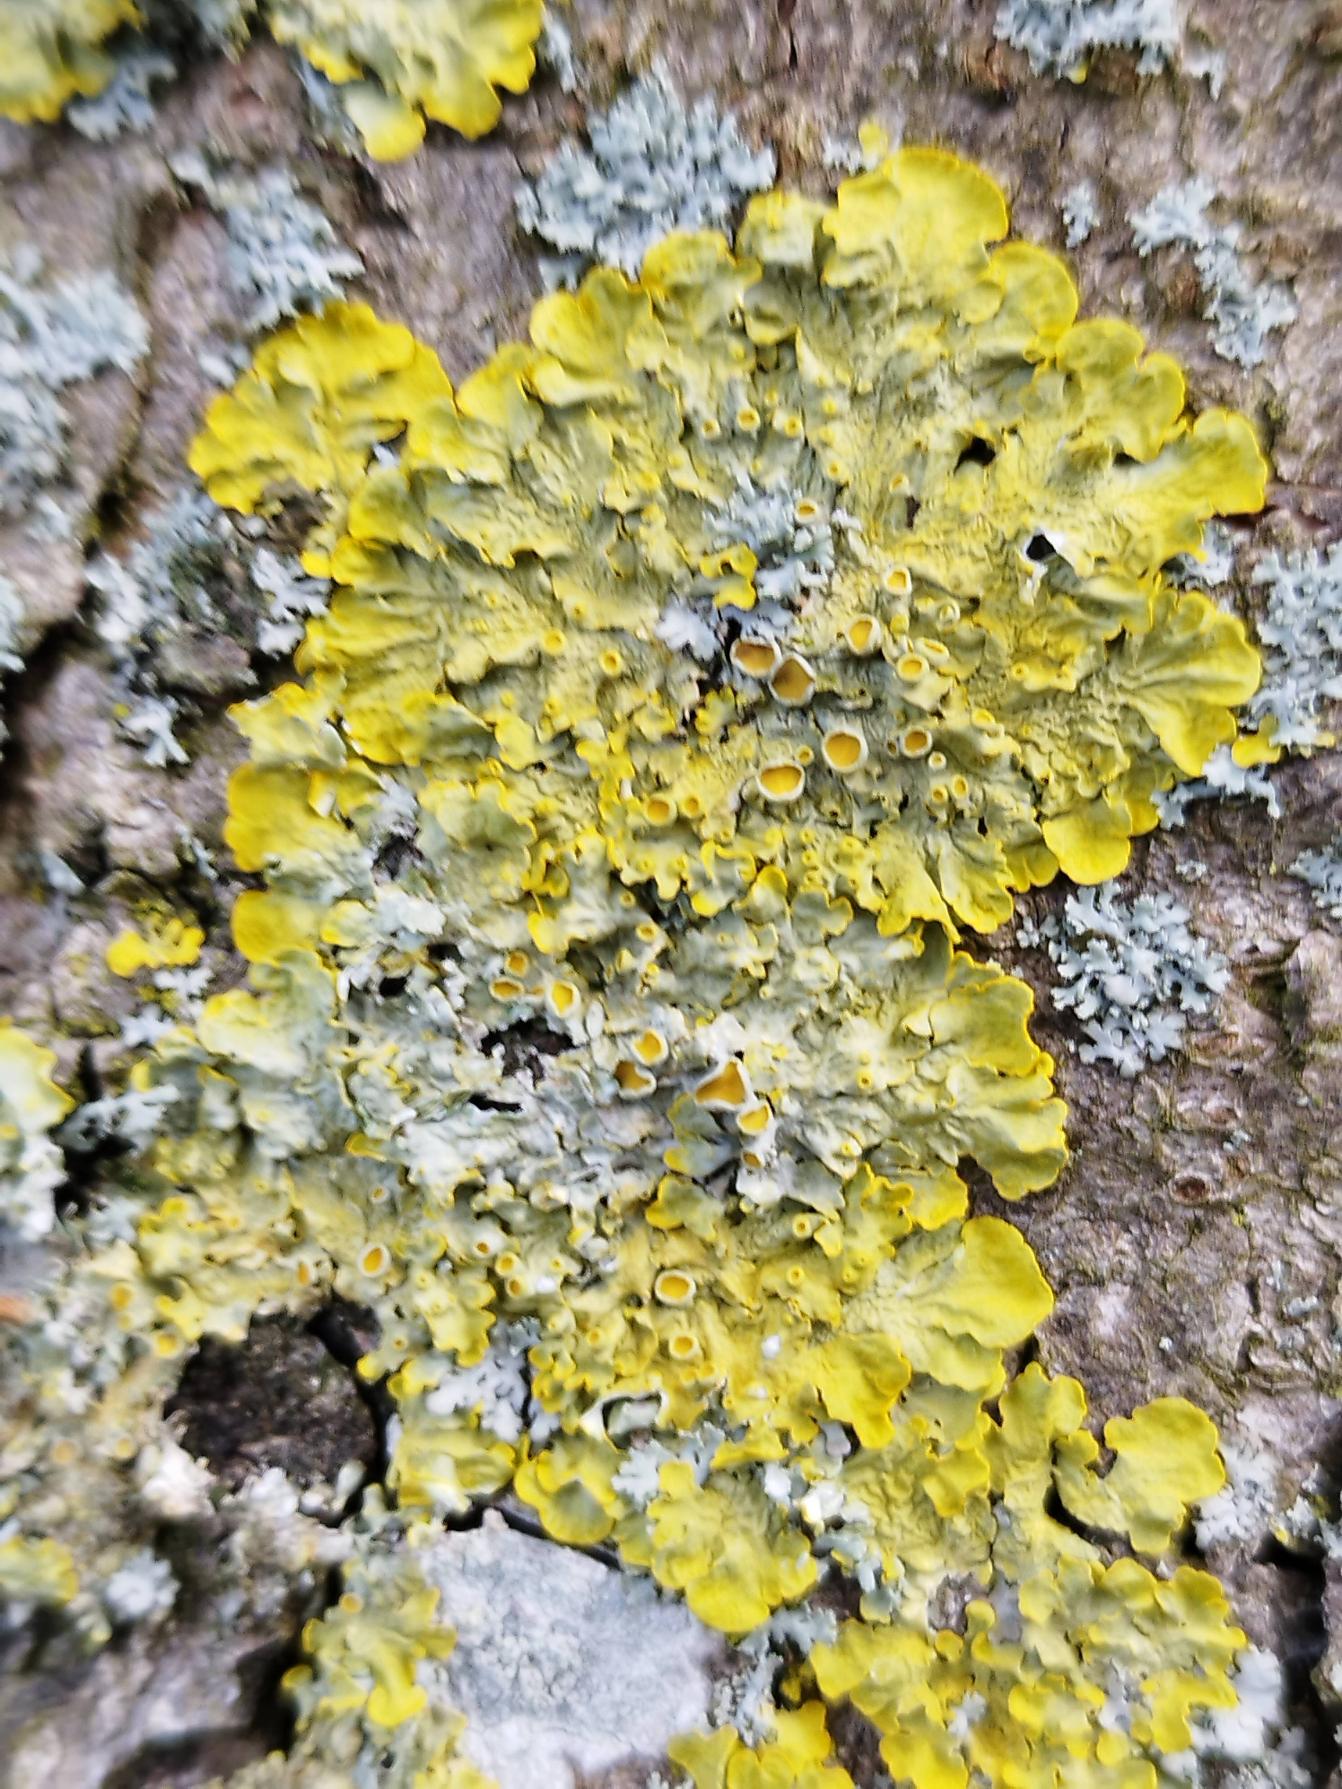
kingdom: Fungi
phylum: Ascomycota
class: Lecanoromycetes
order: Teloschistales
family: Teloschistaceae
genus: Xanthoria
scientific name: Xanthoria parietina
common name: Almindelig væggelav
